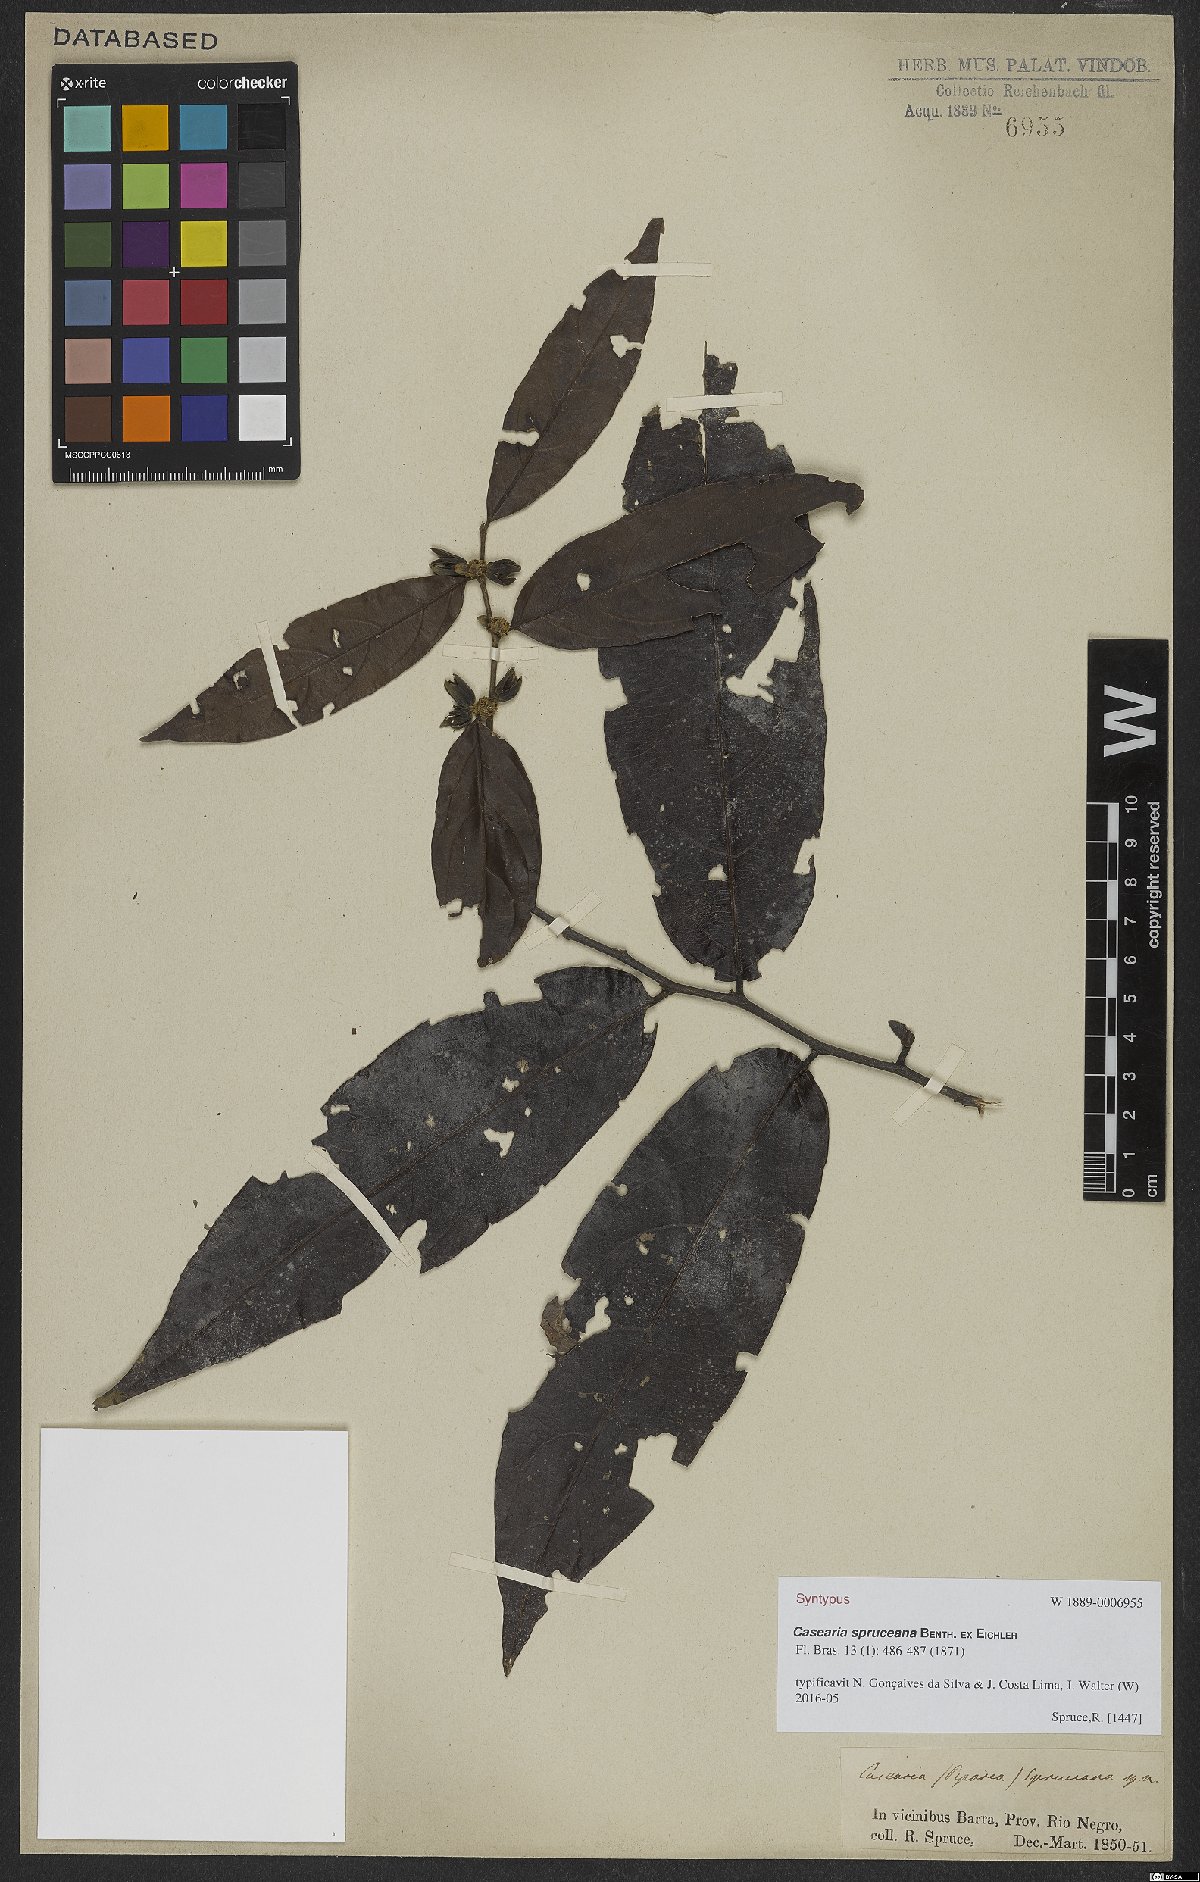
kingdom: Plantae
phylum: Tracheophyta
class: Magnoliopsida
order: Malpighiales
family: Salicaceae
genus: Piparea
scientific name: Piparea spruceana
